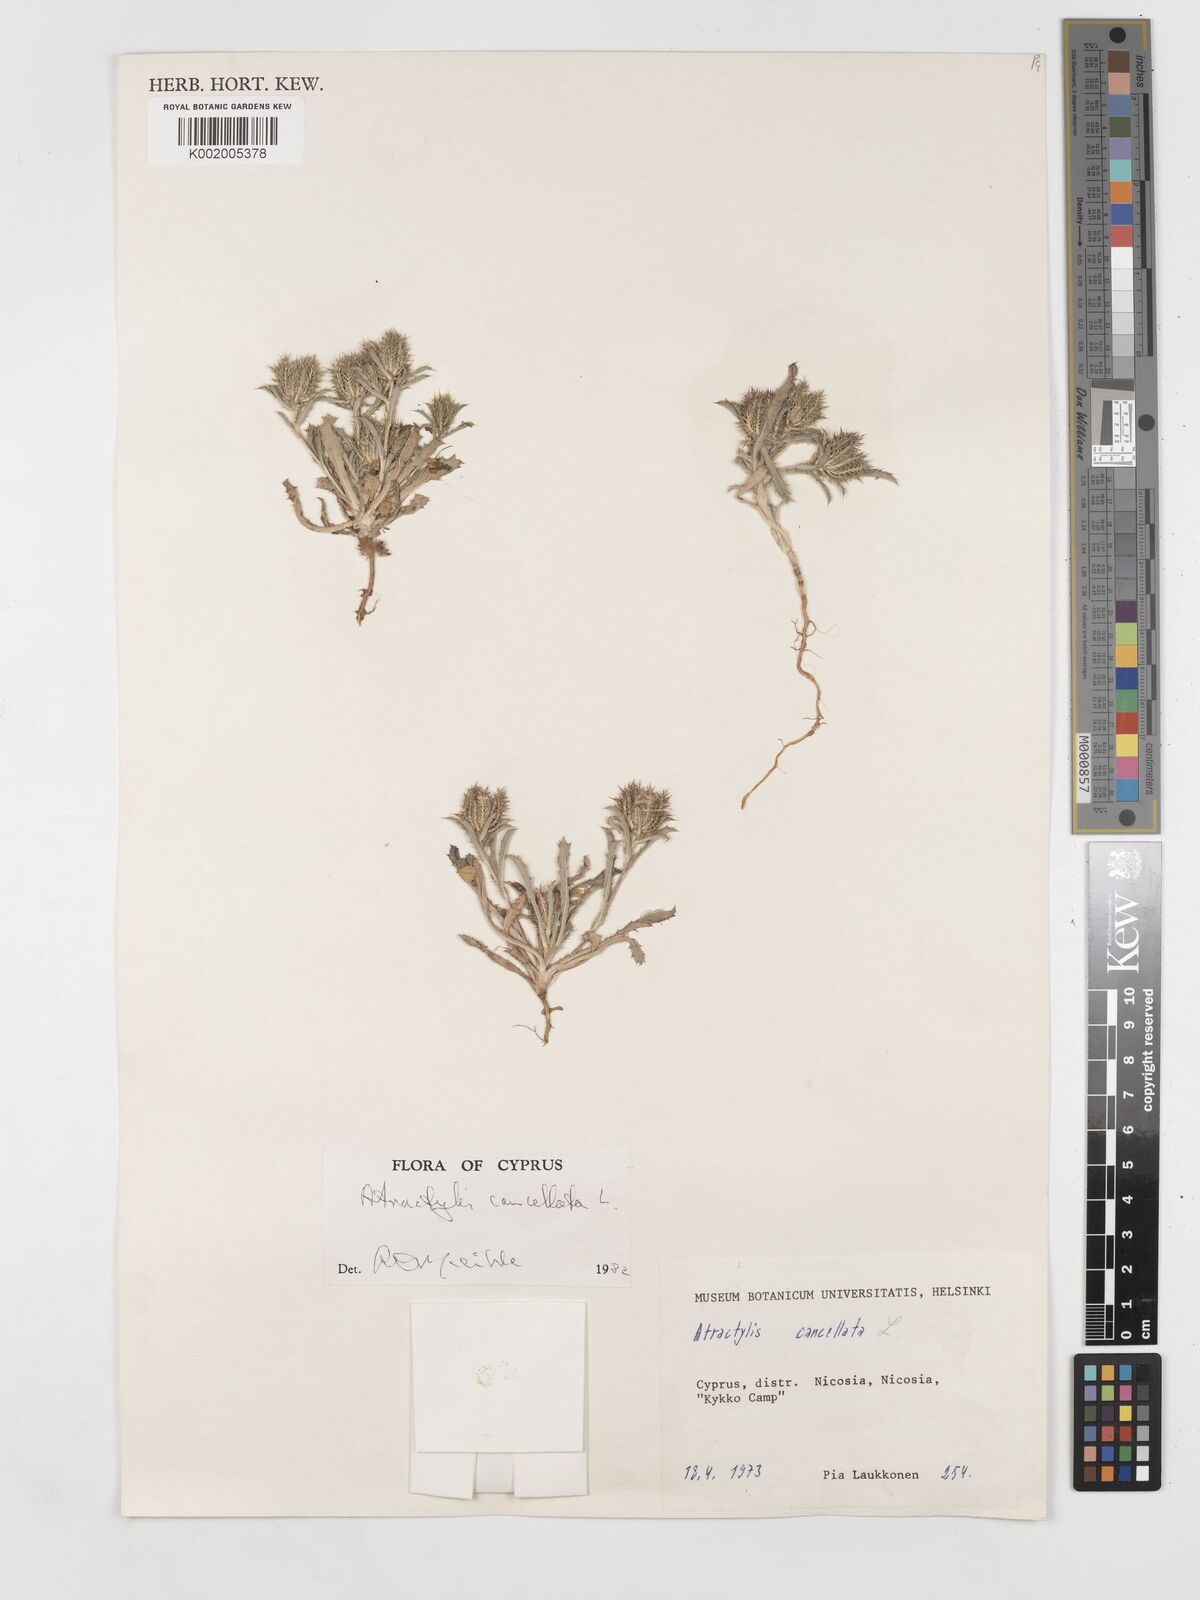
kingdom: Plantae
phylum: Tracheophyta
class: Magnoliopsida
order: Asterales
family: Asteraceae
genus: Atractylis
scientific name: Atractylis cancellata
